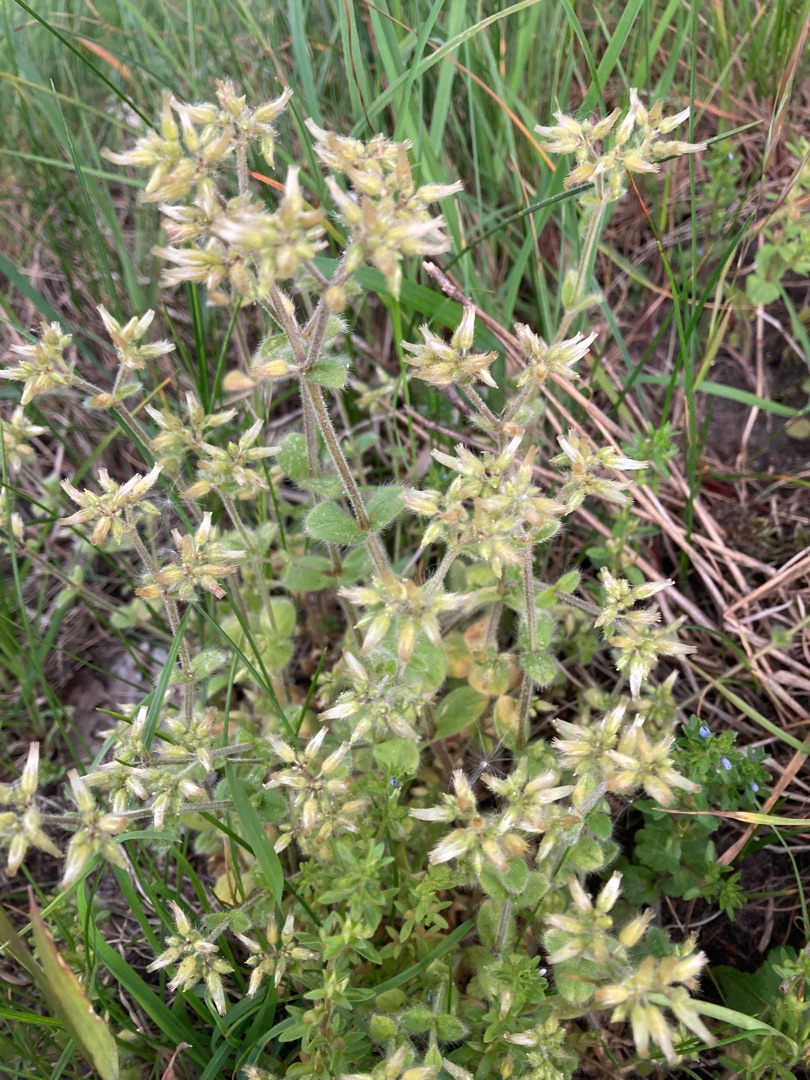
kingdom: Plantae
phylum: Tracheophyta
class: Magnoliopsida
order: Caryophyllales
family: Caryophyllaceae
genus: Cerastium
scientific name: Cerastium glomeratum
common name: Opret hønsetarm
